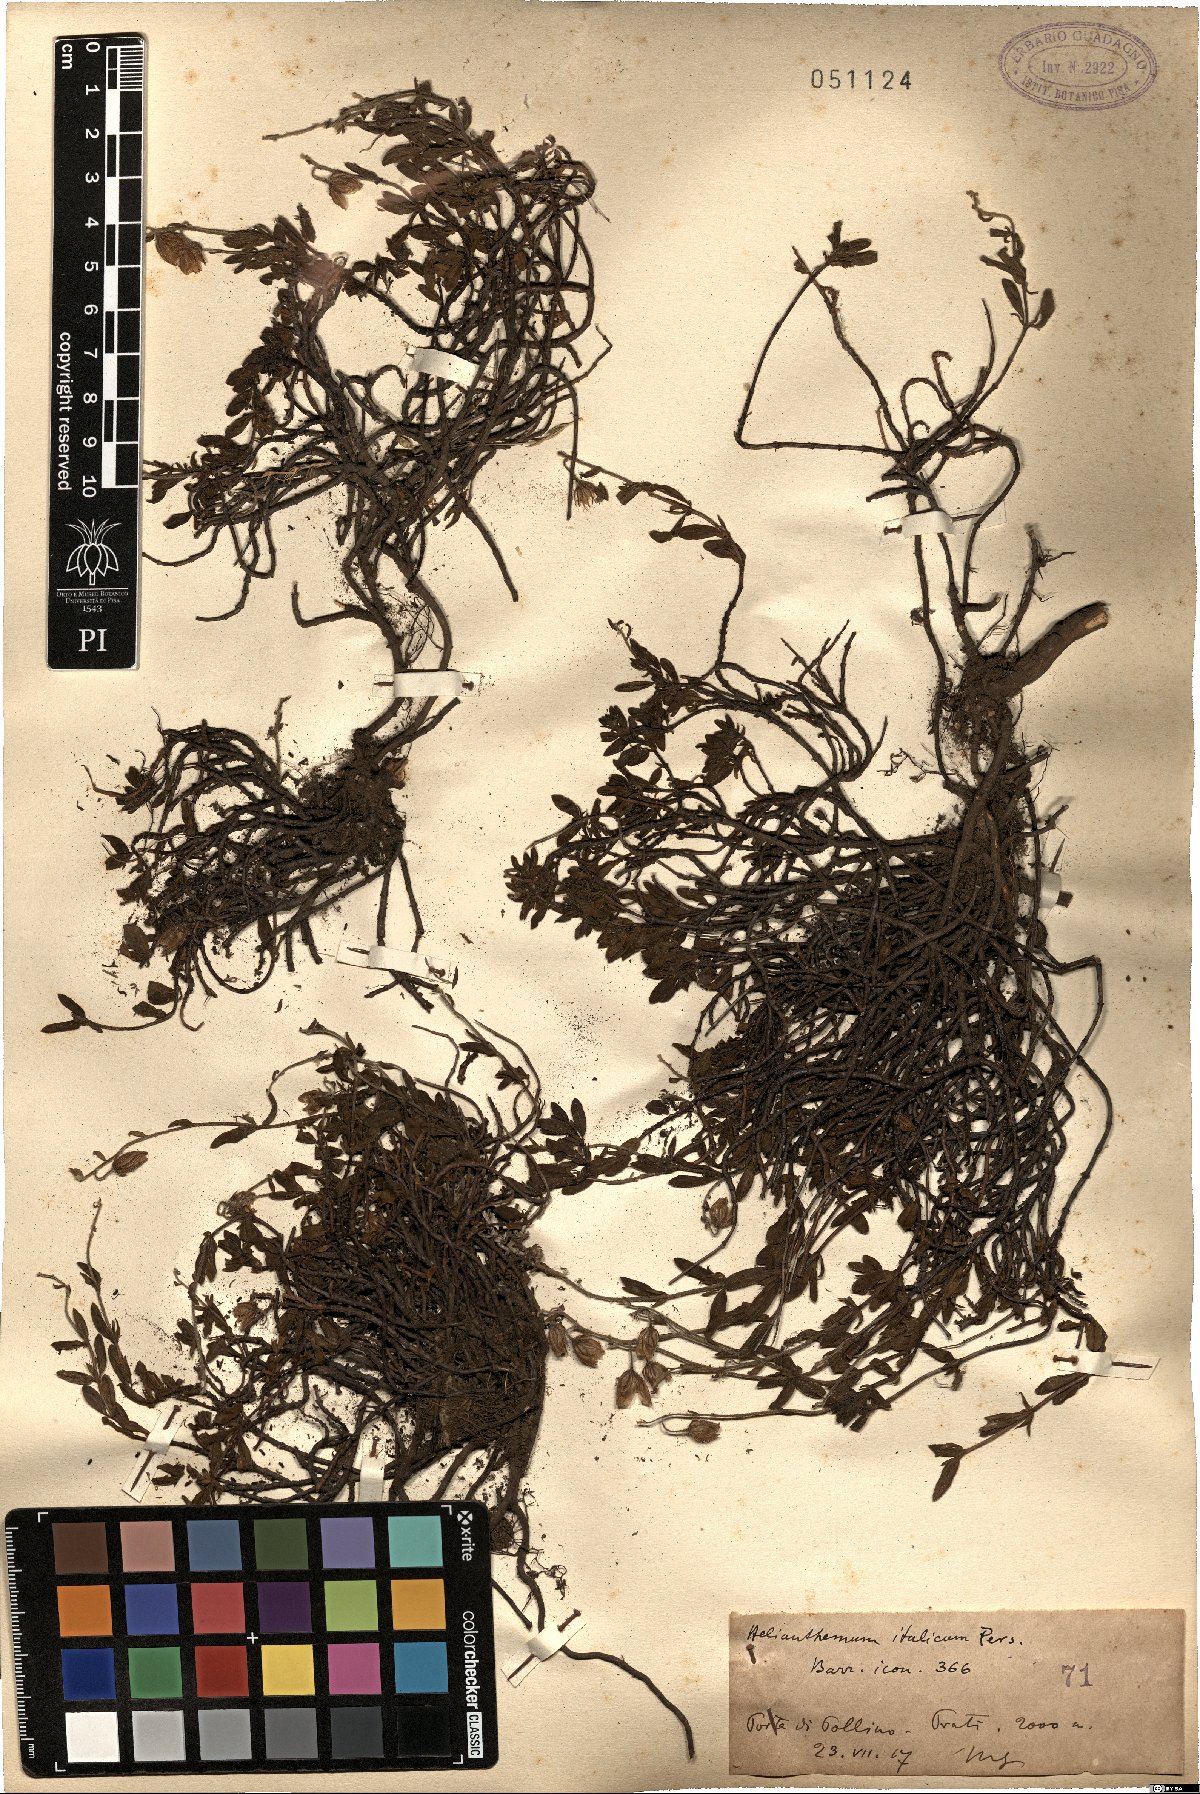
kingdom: Plantae
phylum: Tracheophyta
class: Magnoliopsida
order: Malvales
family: Cistaceae
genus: Helianthemum
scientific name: Helianthemum italicum
